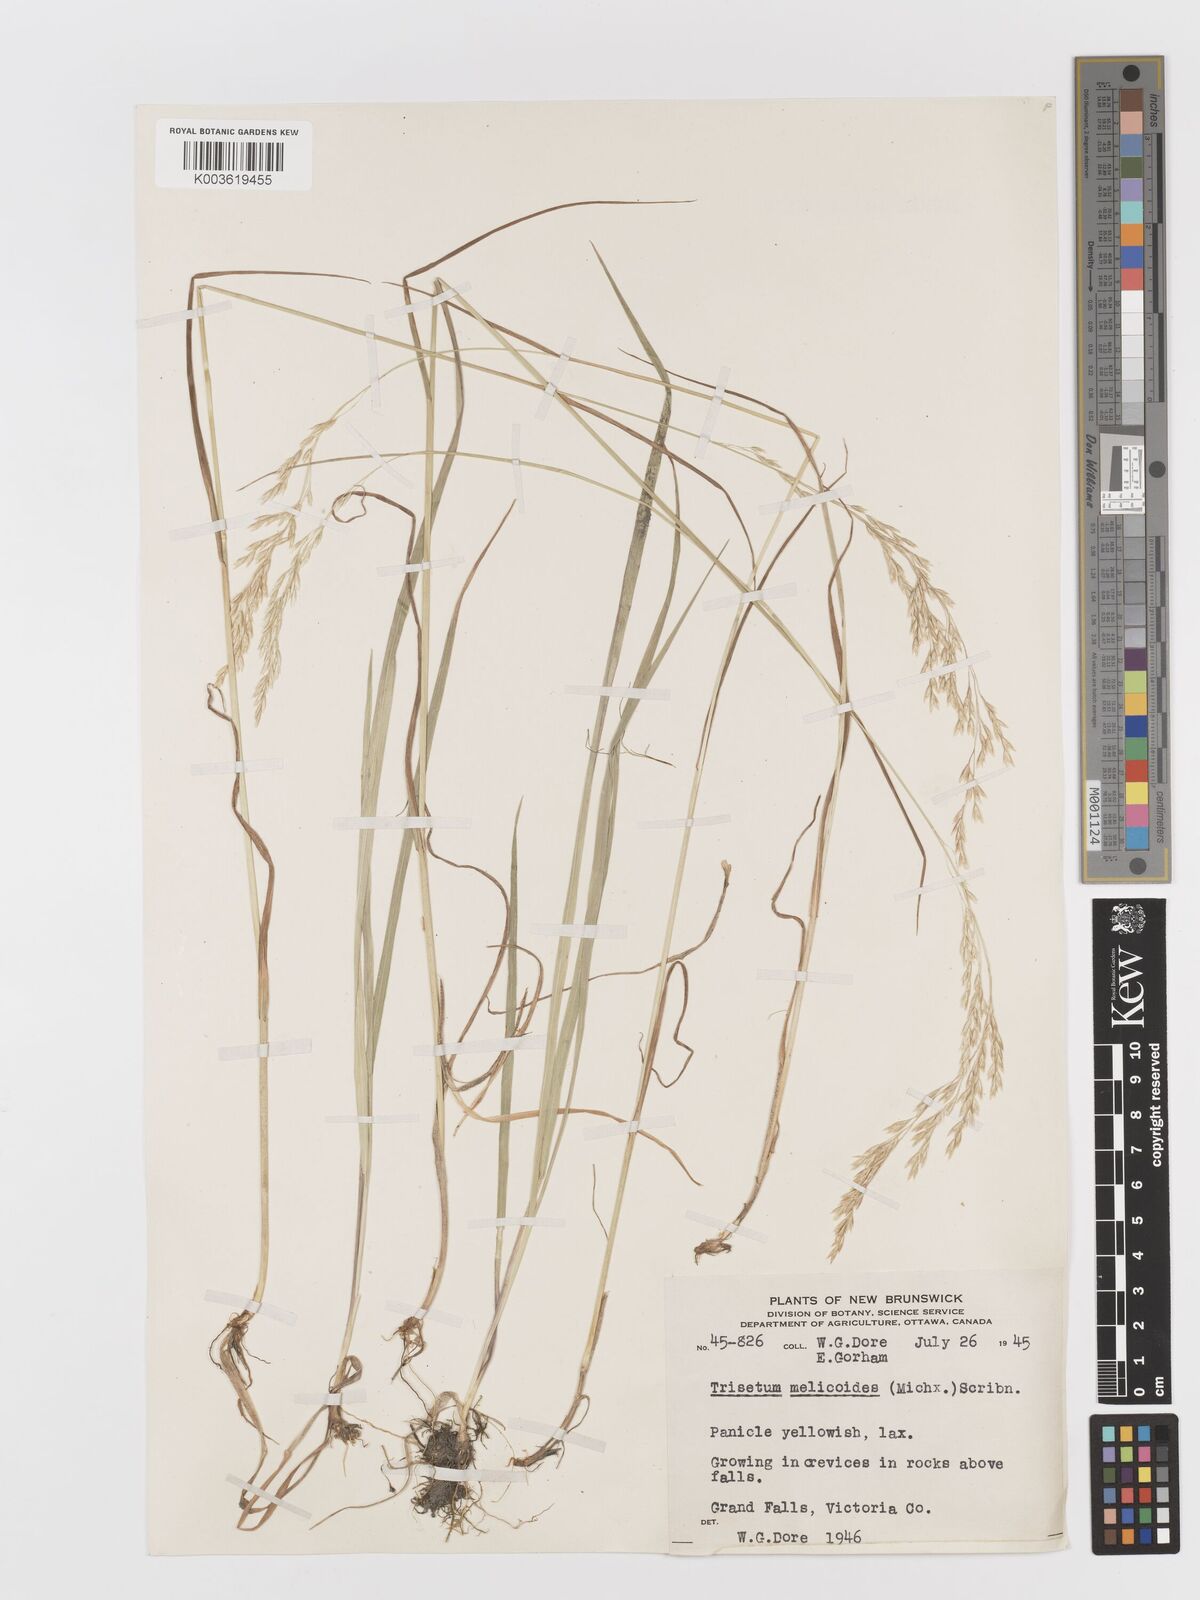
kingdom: Plantae
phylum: Tracheophyta
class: Liliopsida
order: Poales
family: Poaceae
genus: Graphephorum
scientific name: Graphephorum melicoides
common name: False melic
